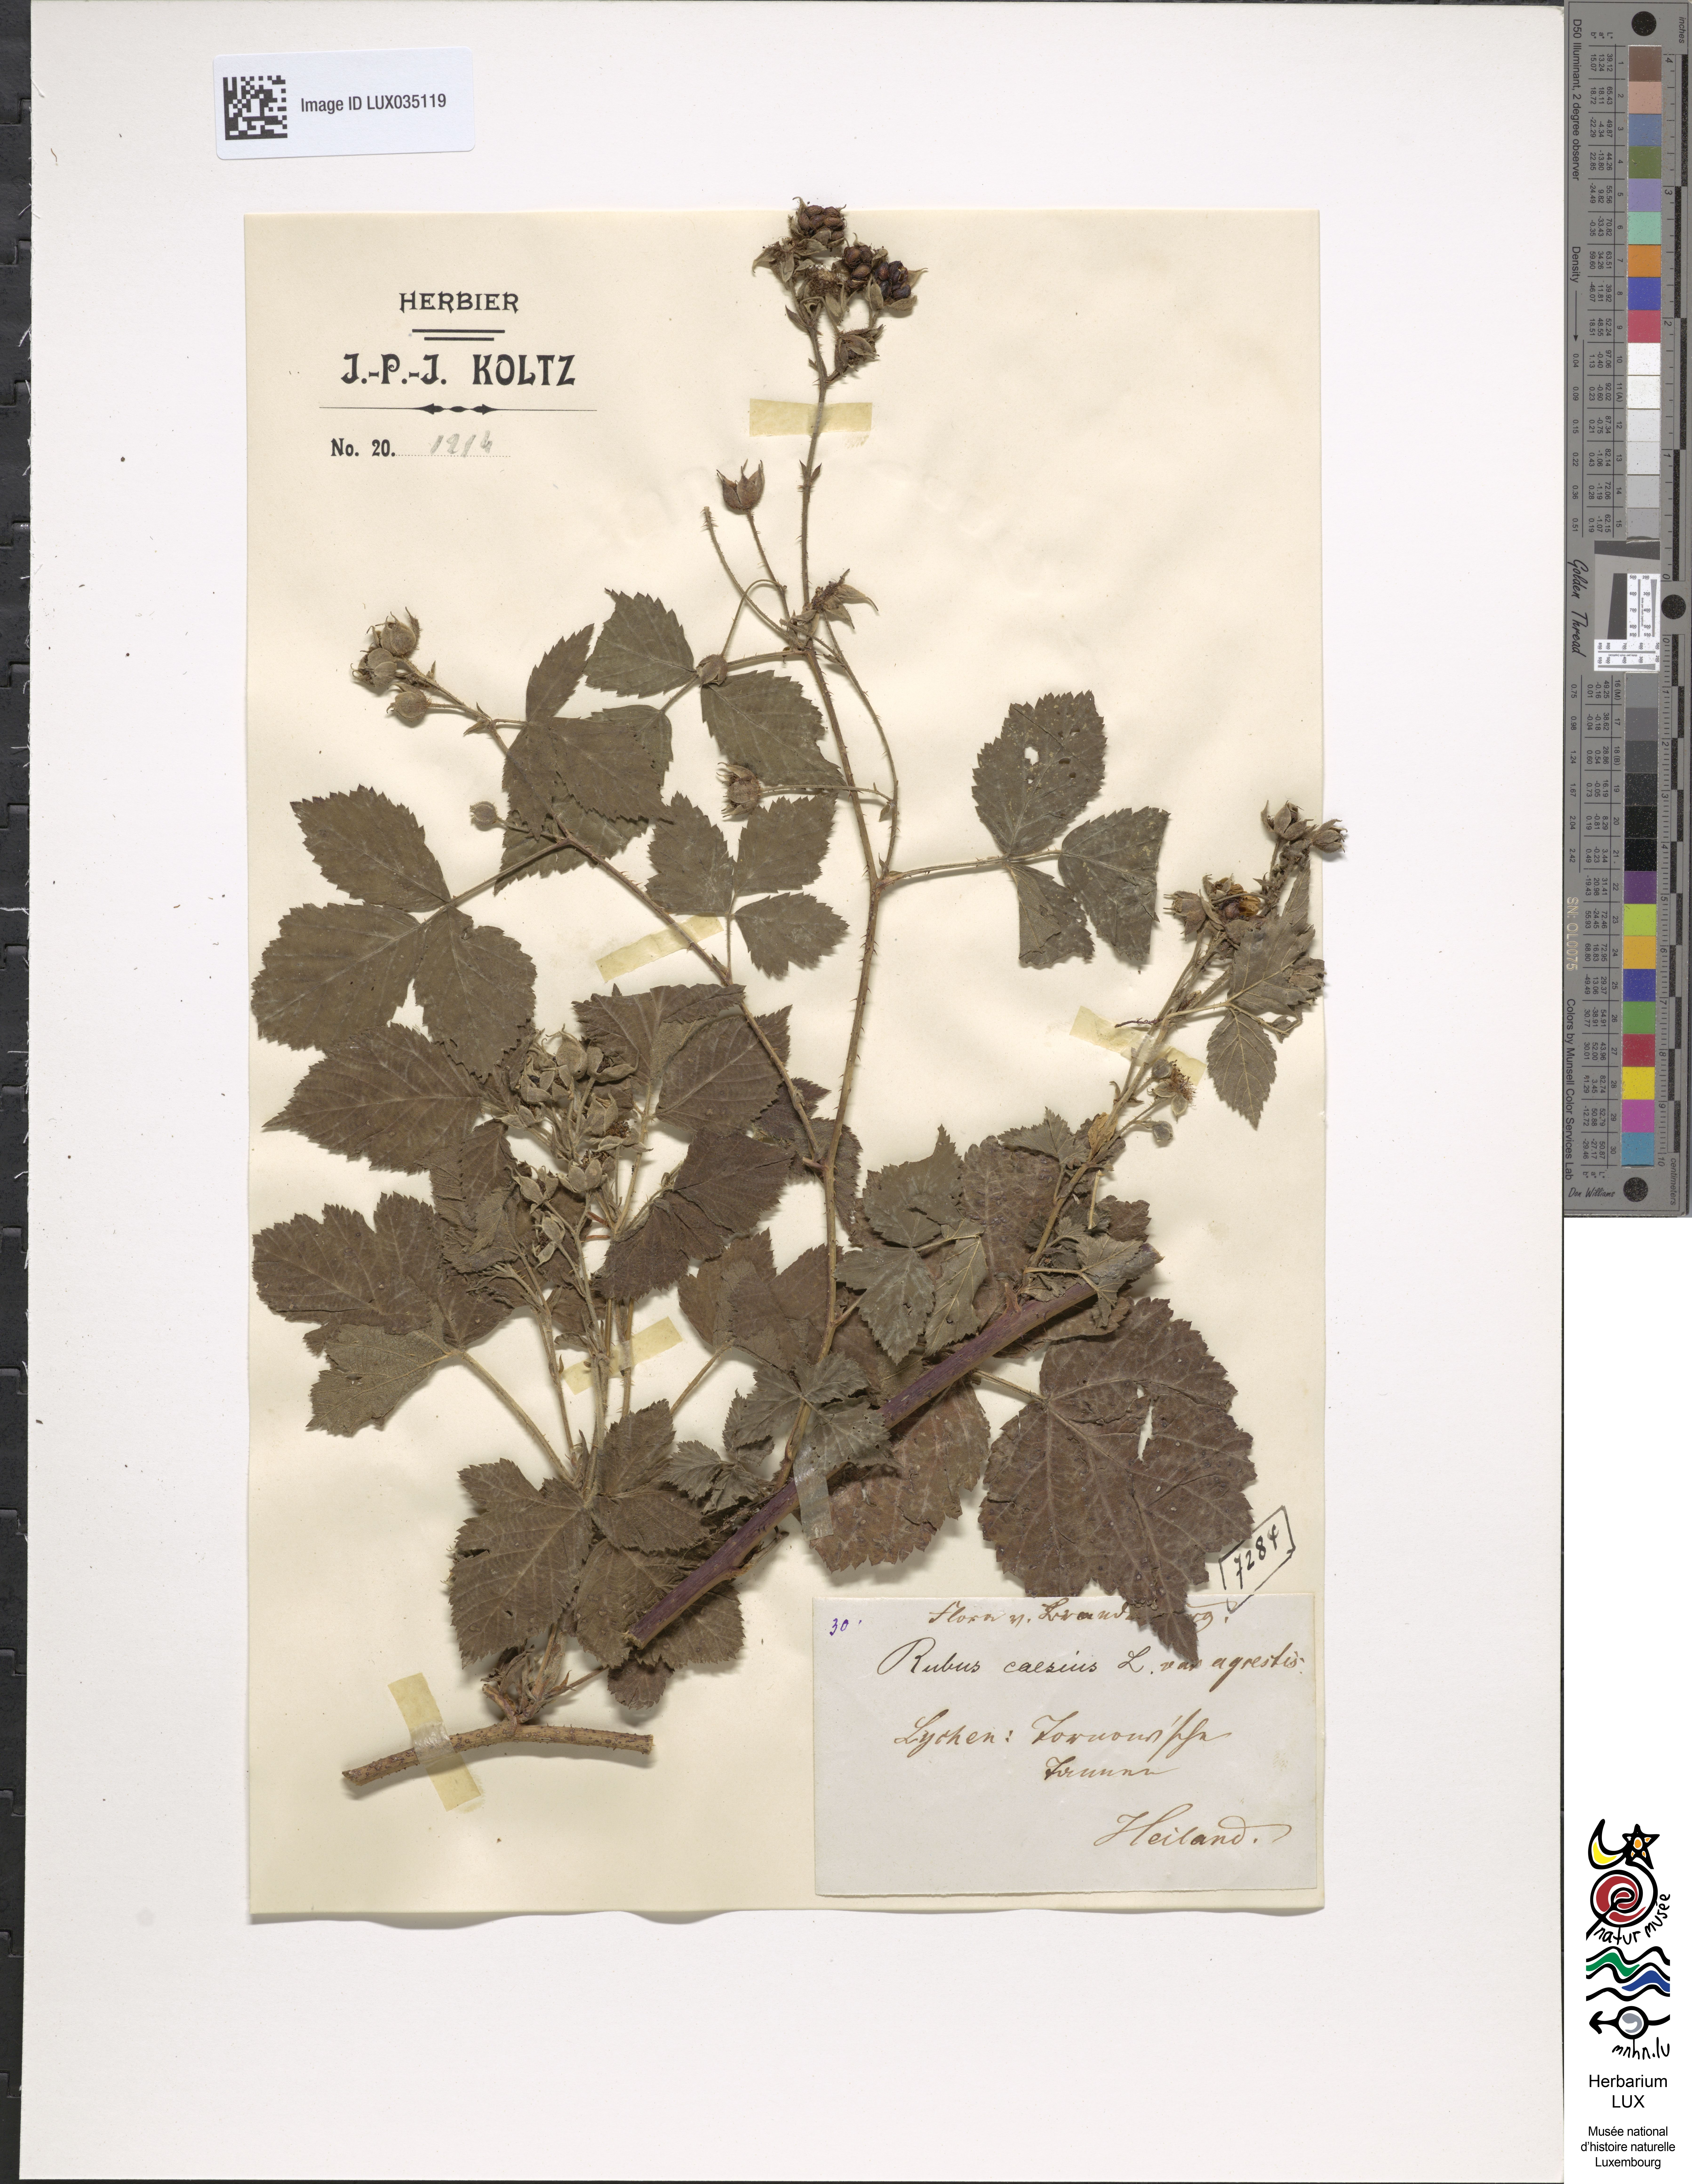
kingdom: Plantae
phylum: Tracheophyta
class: Magnoliopsida
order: Rosales
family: Rosaceae
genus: Rubus
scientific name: Rubus caesius
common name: Dewberry
